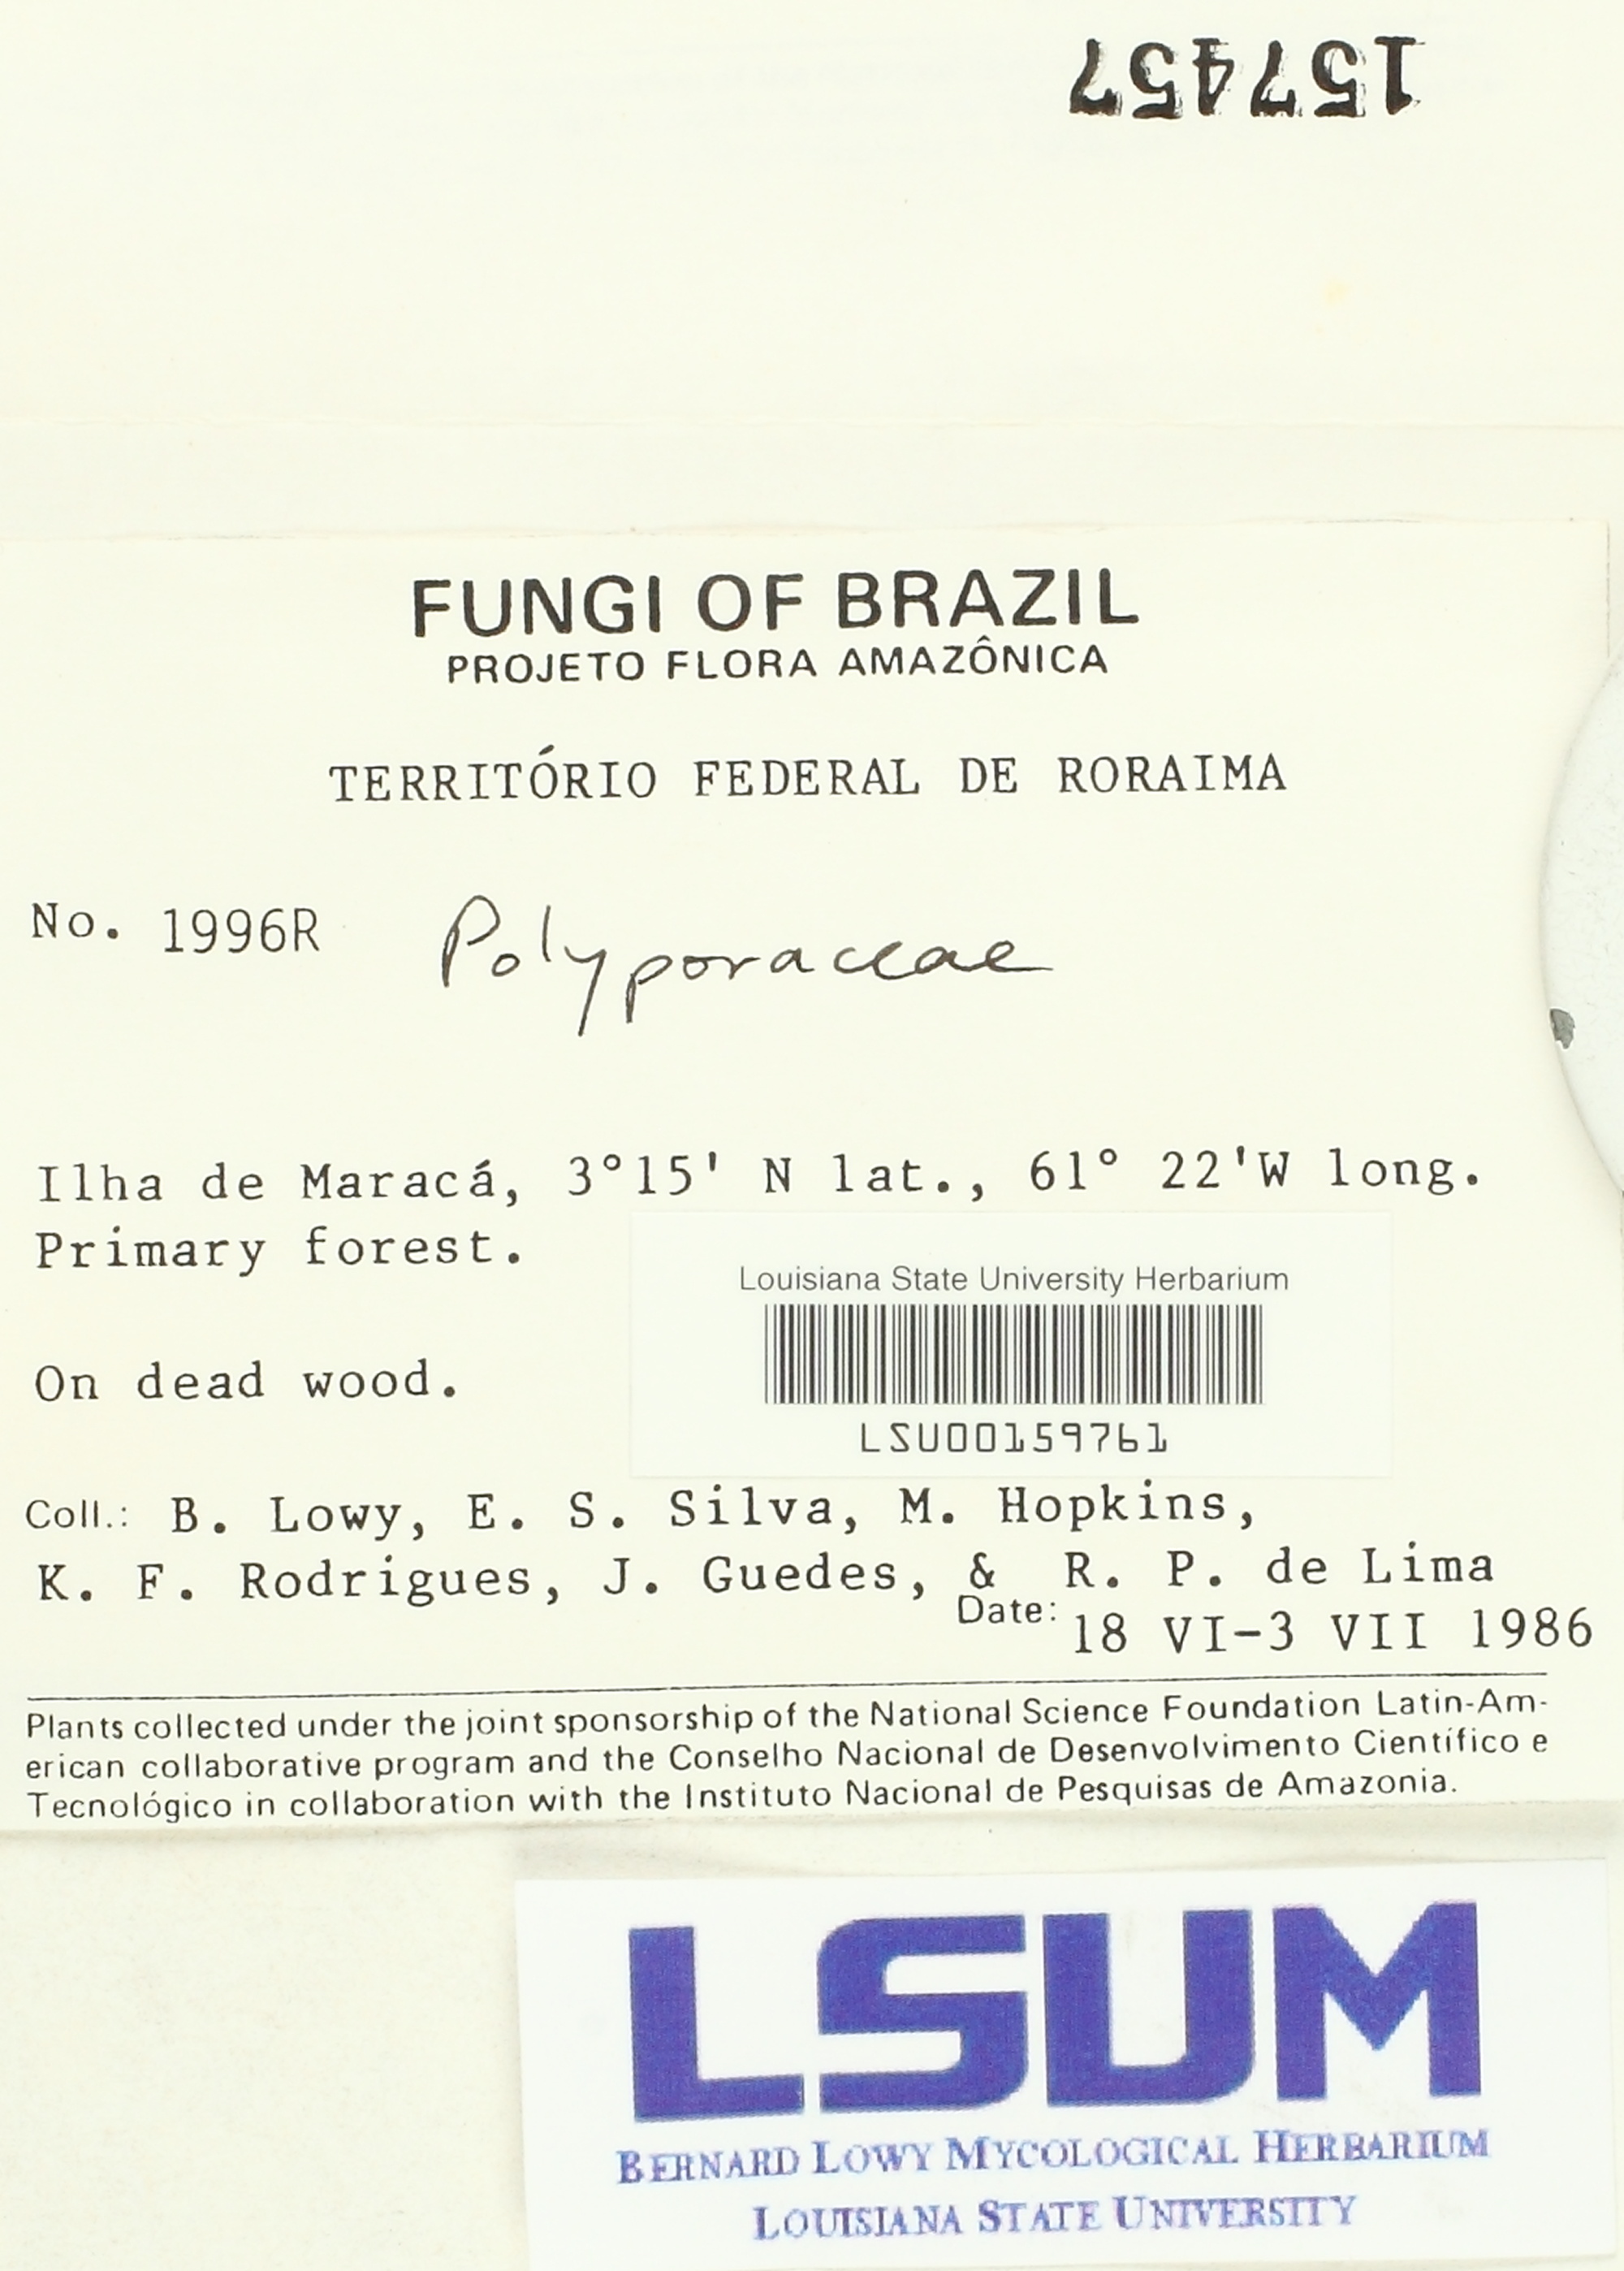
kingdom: Fungi
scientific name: Fungi
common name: Fungi
